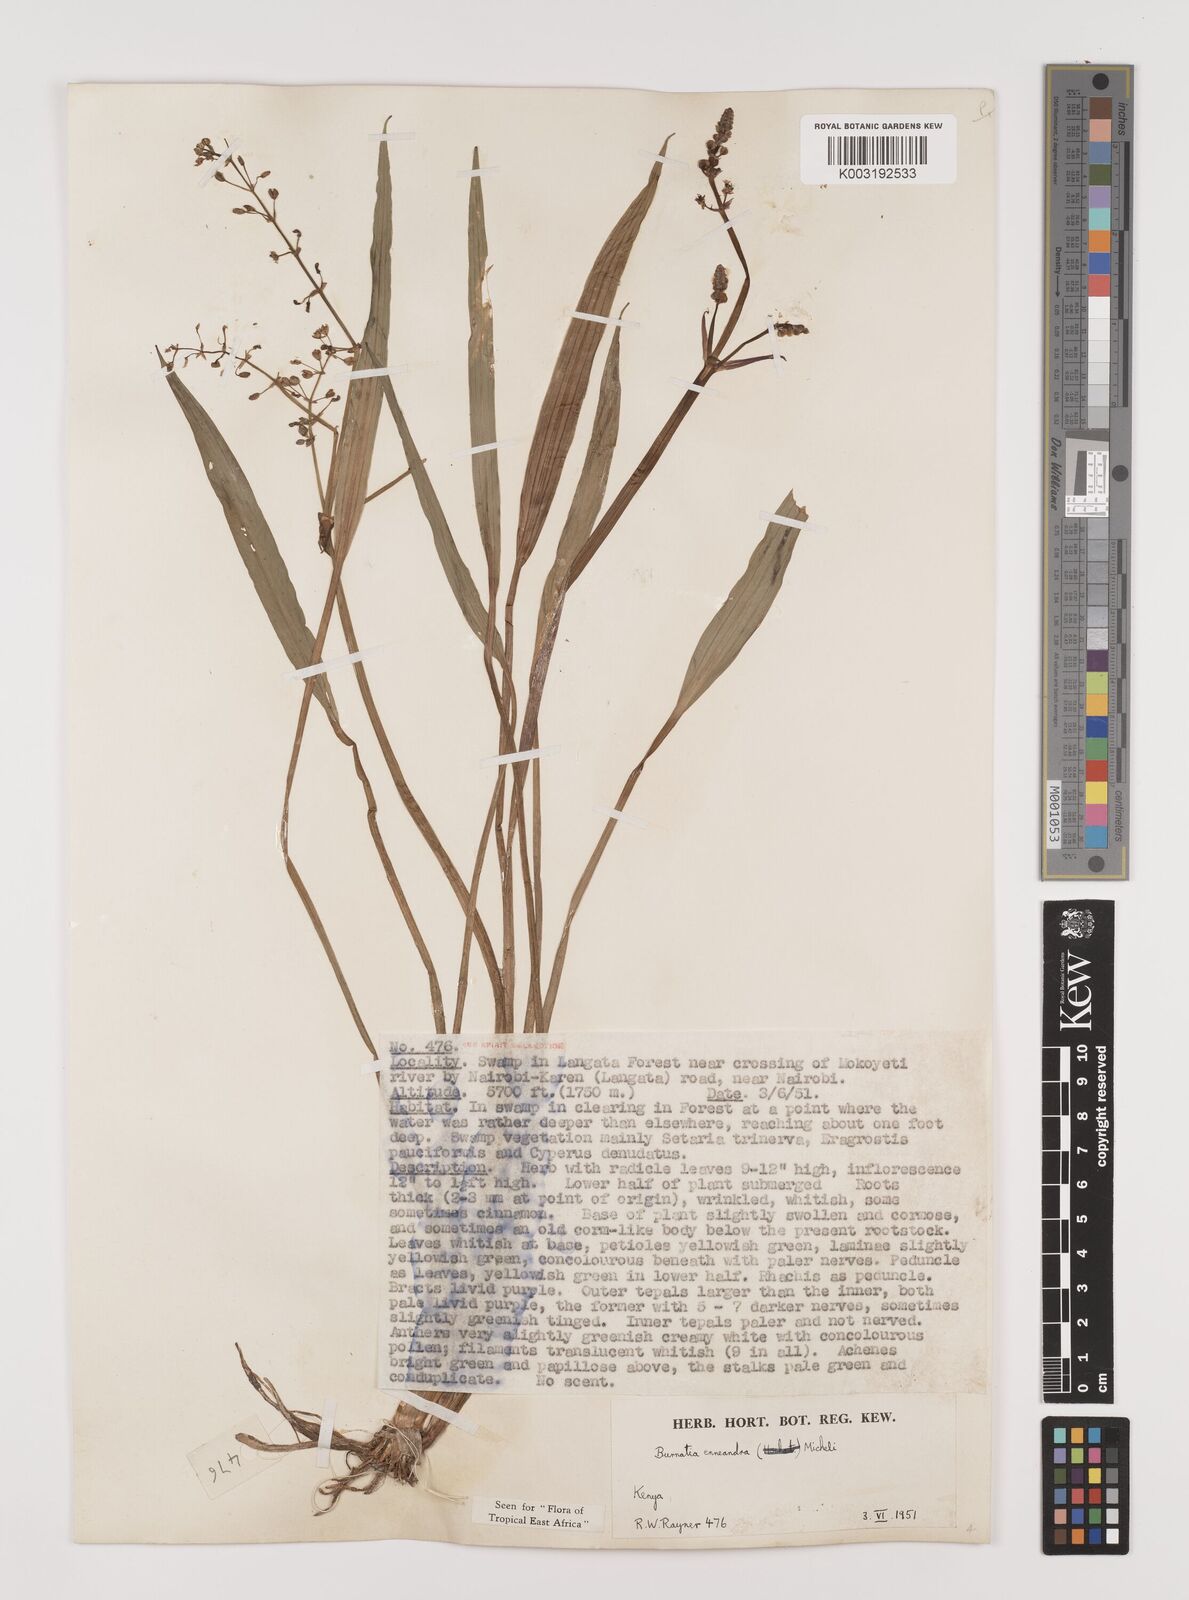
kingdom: Plantae
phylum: Tracheophyta
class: Liliopsida
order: Alismatales
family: Alismataceae
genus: Burnatia
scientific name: Burnatia enneandra
